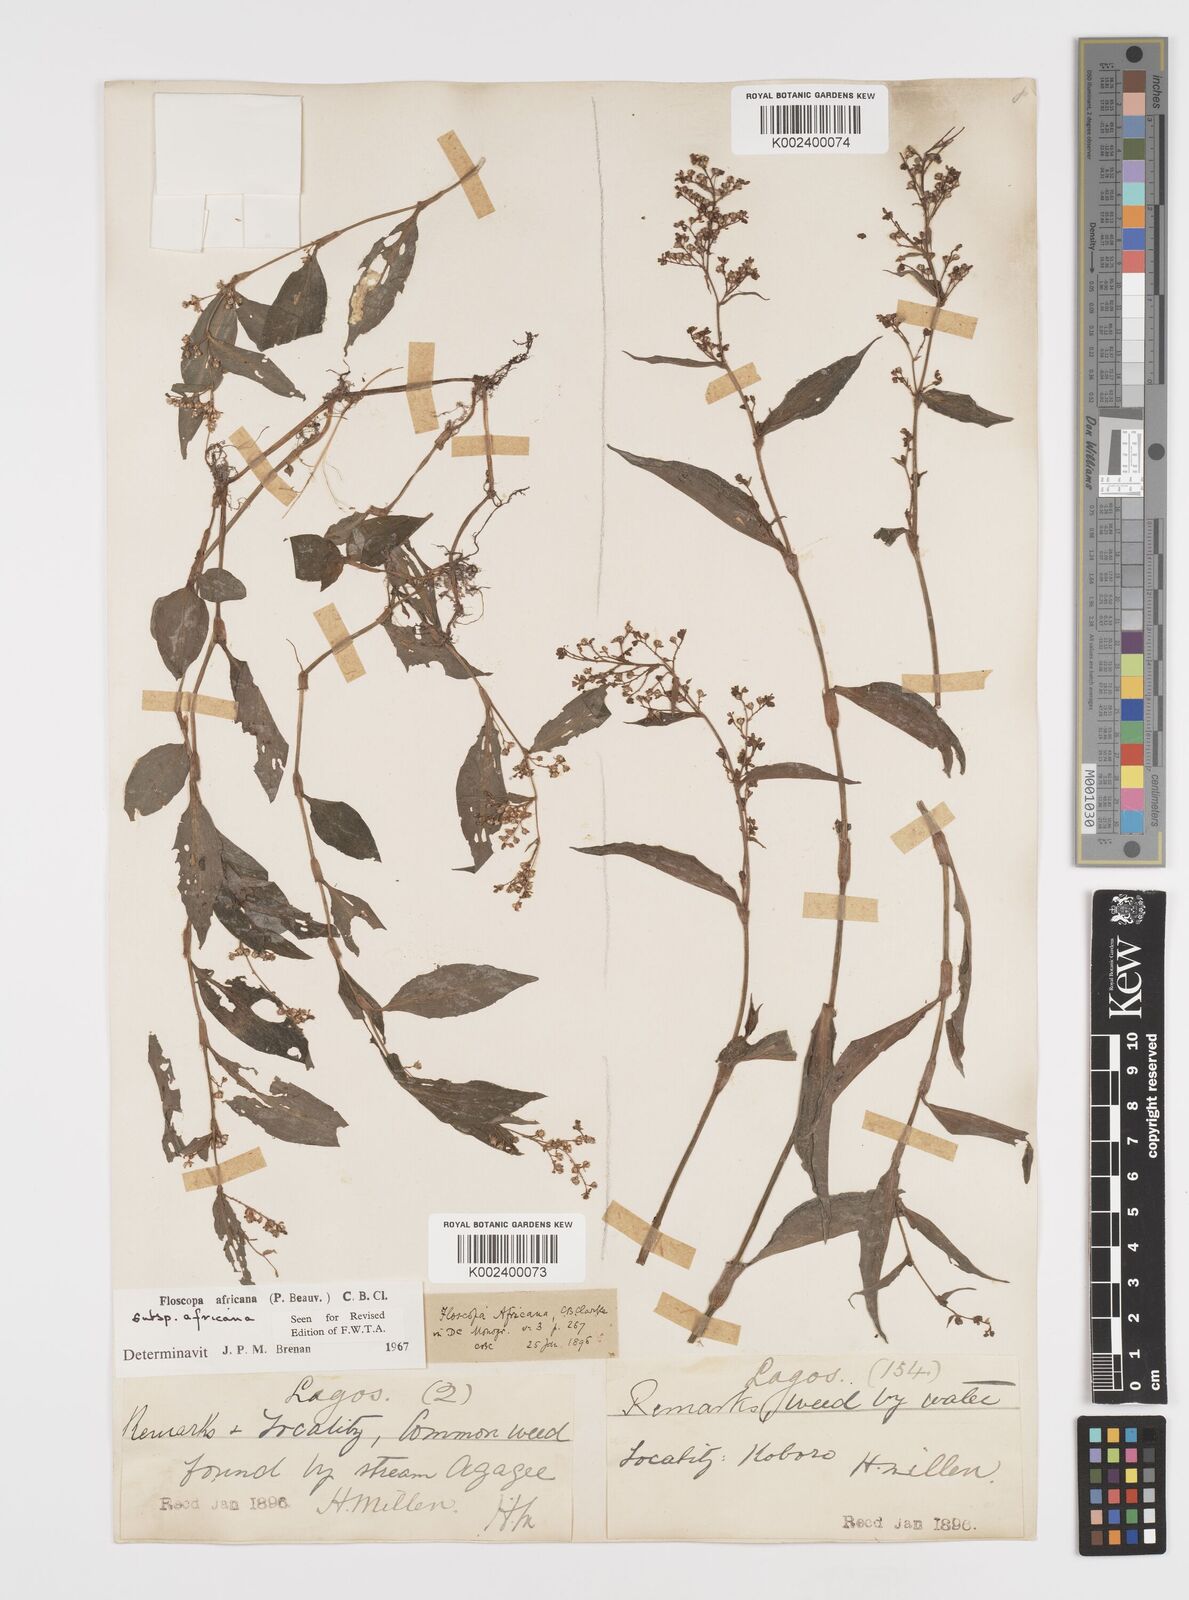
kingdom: Plantae
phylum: Tracheophyta
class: Liliopsida
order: Commelinales
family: Commelinaceae
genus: Floscopa
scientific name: Floscopa africana
